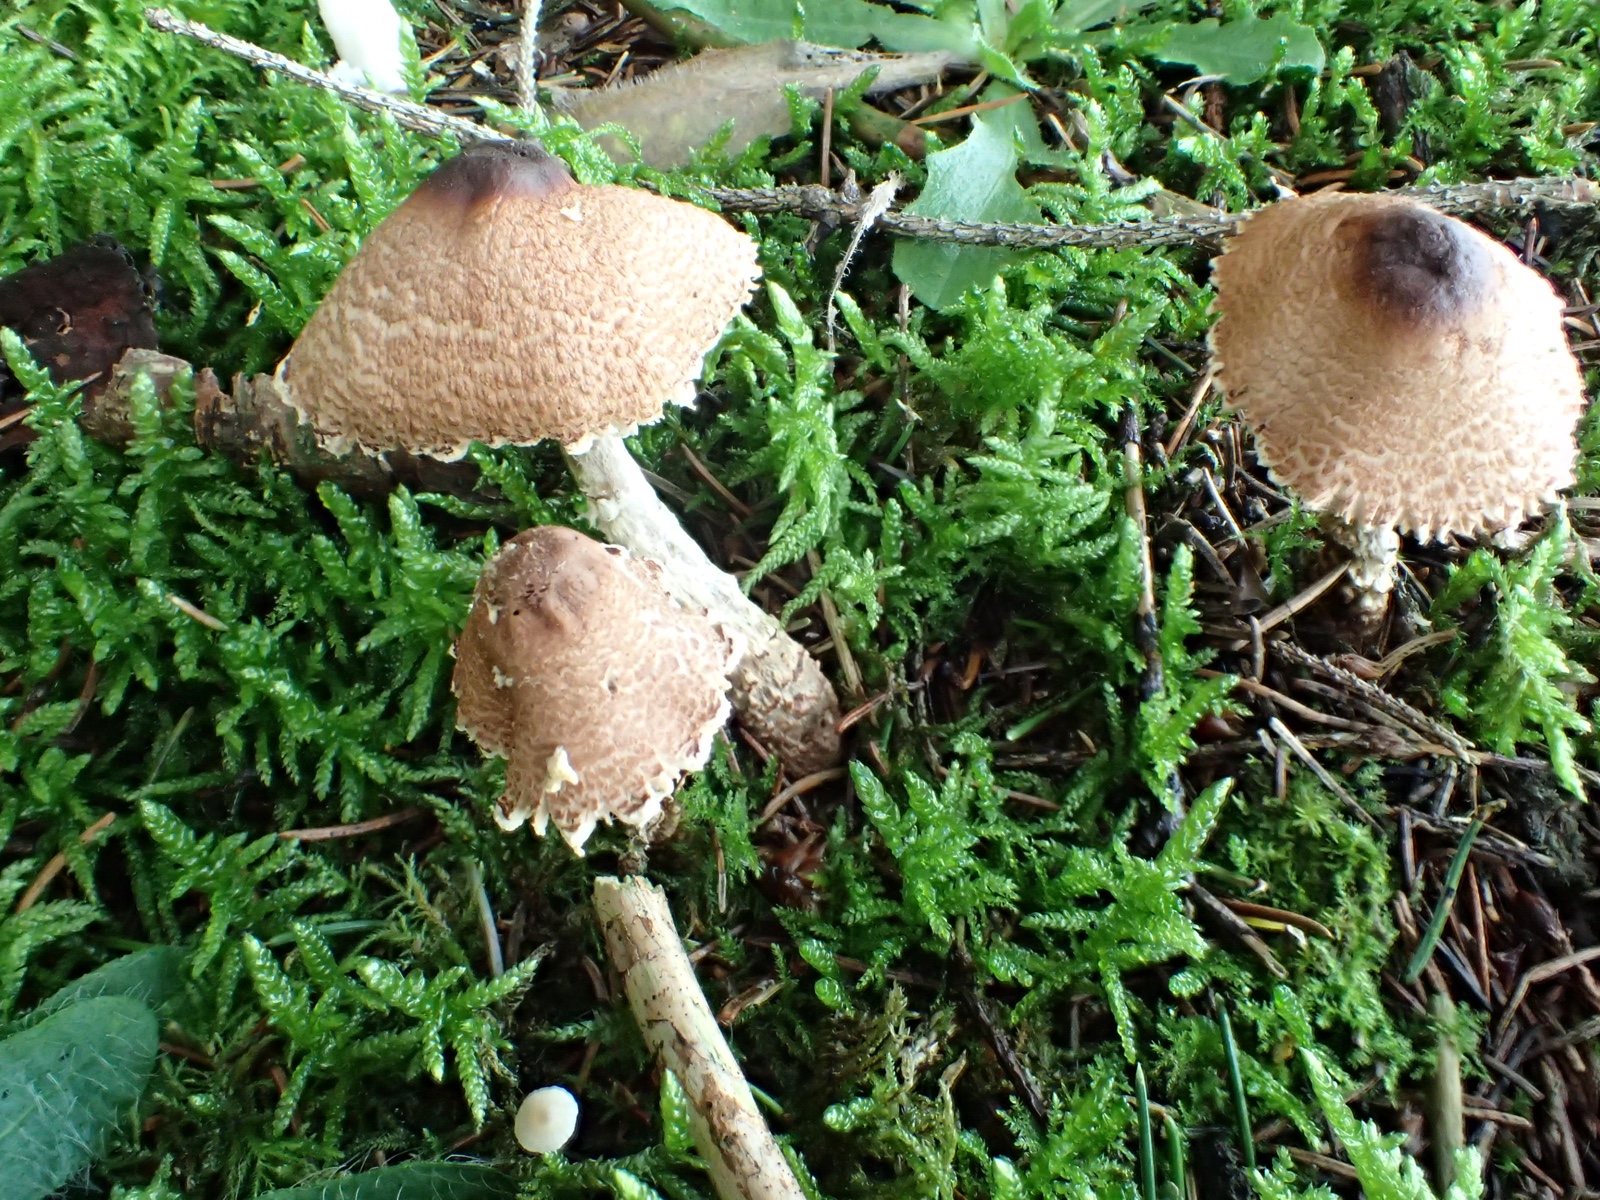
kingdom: Fungi
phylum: Basidiomycota
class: Agaricomycetes
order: Agaricales
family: Agaricaceae
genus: Lepiota
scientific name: Lepiota
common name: parasolhat
